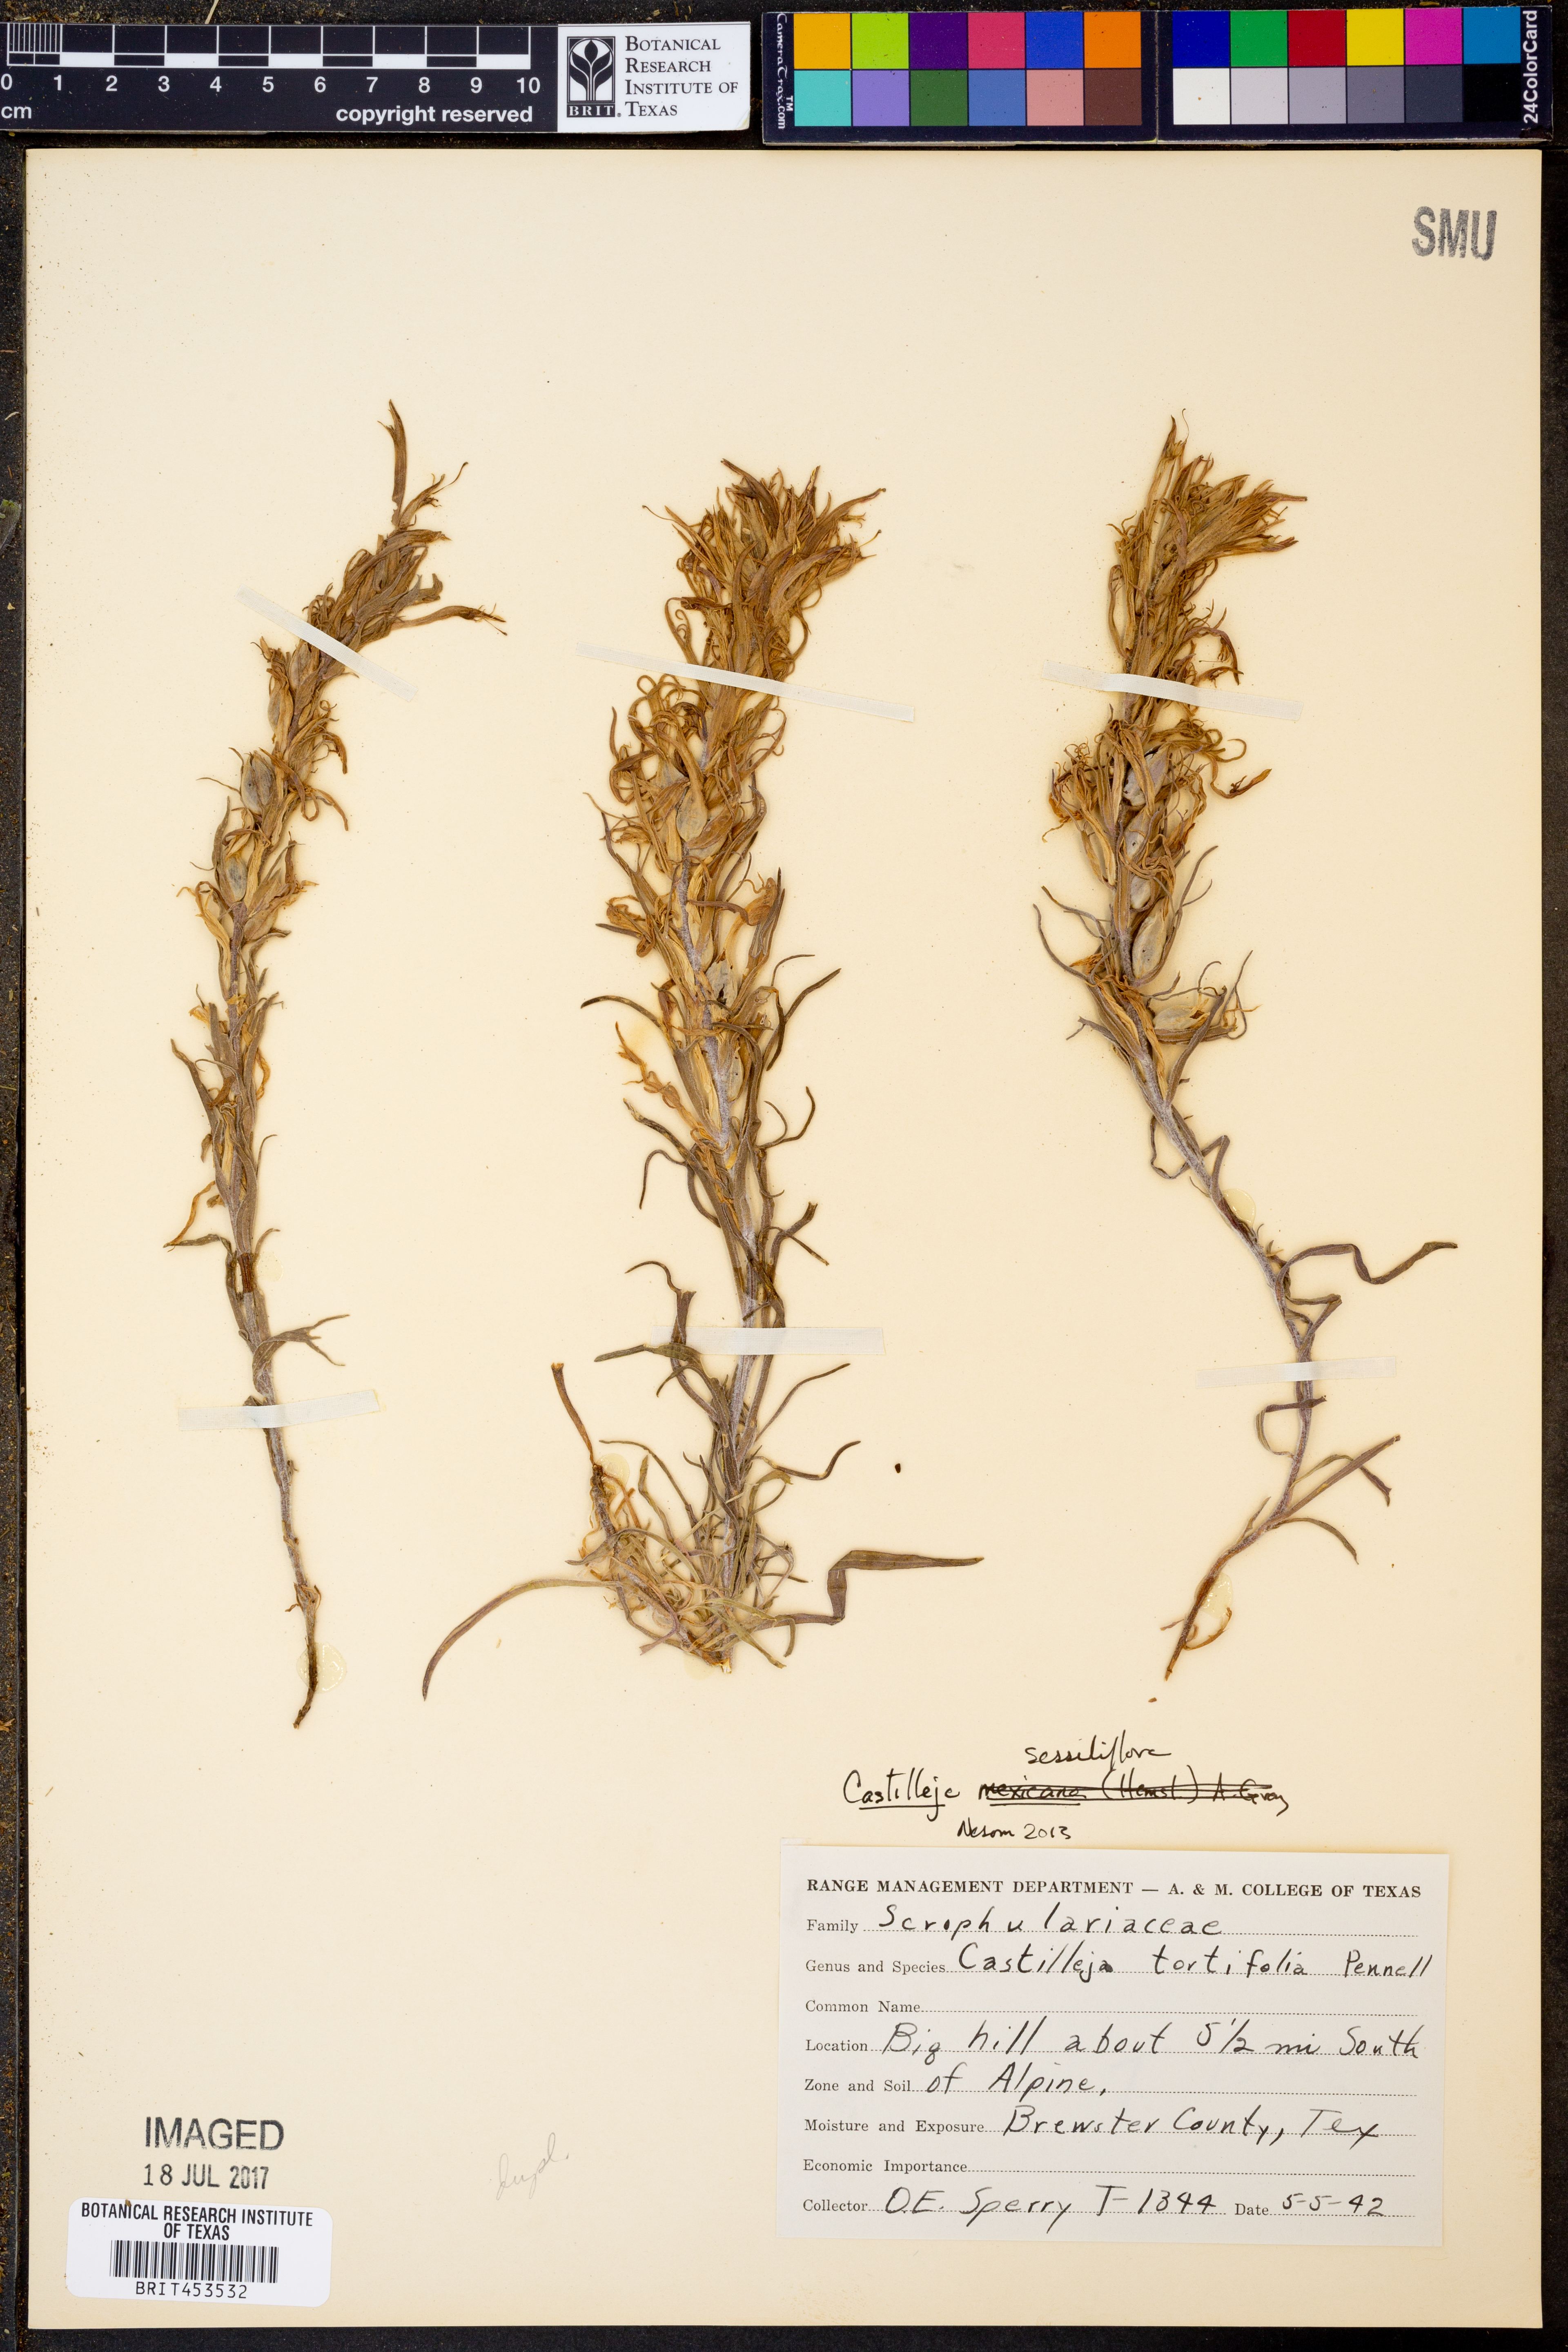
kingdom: Plantae
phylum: Tracheophyta
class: Magnoliopsida
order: Lamiales
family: Orobanchaceae
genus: Castilleja
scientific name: Castilleja sessiliflora
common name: Downy paintbrush
